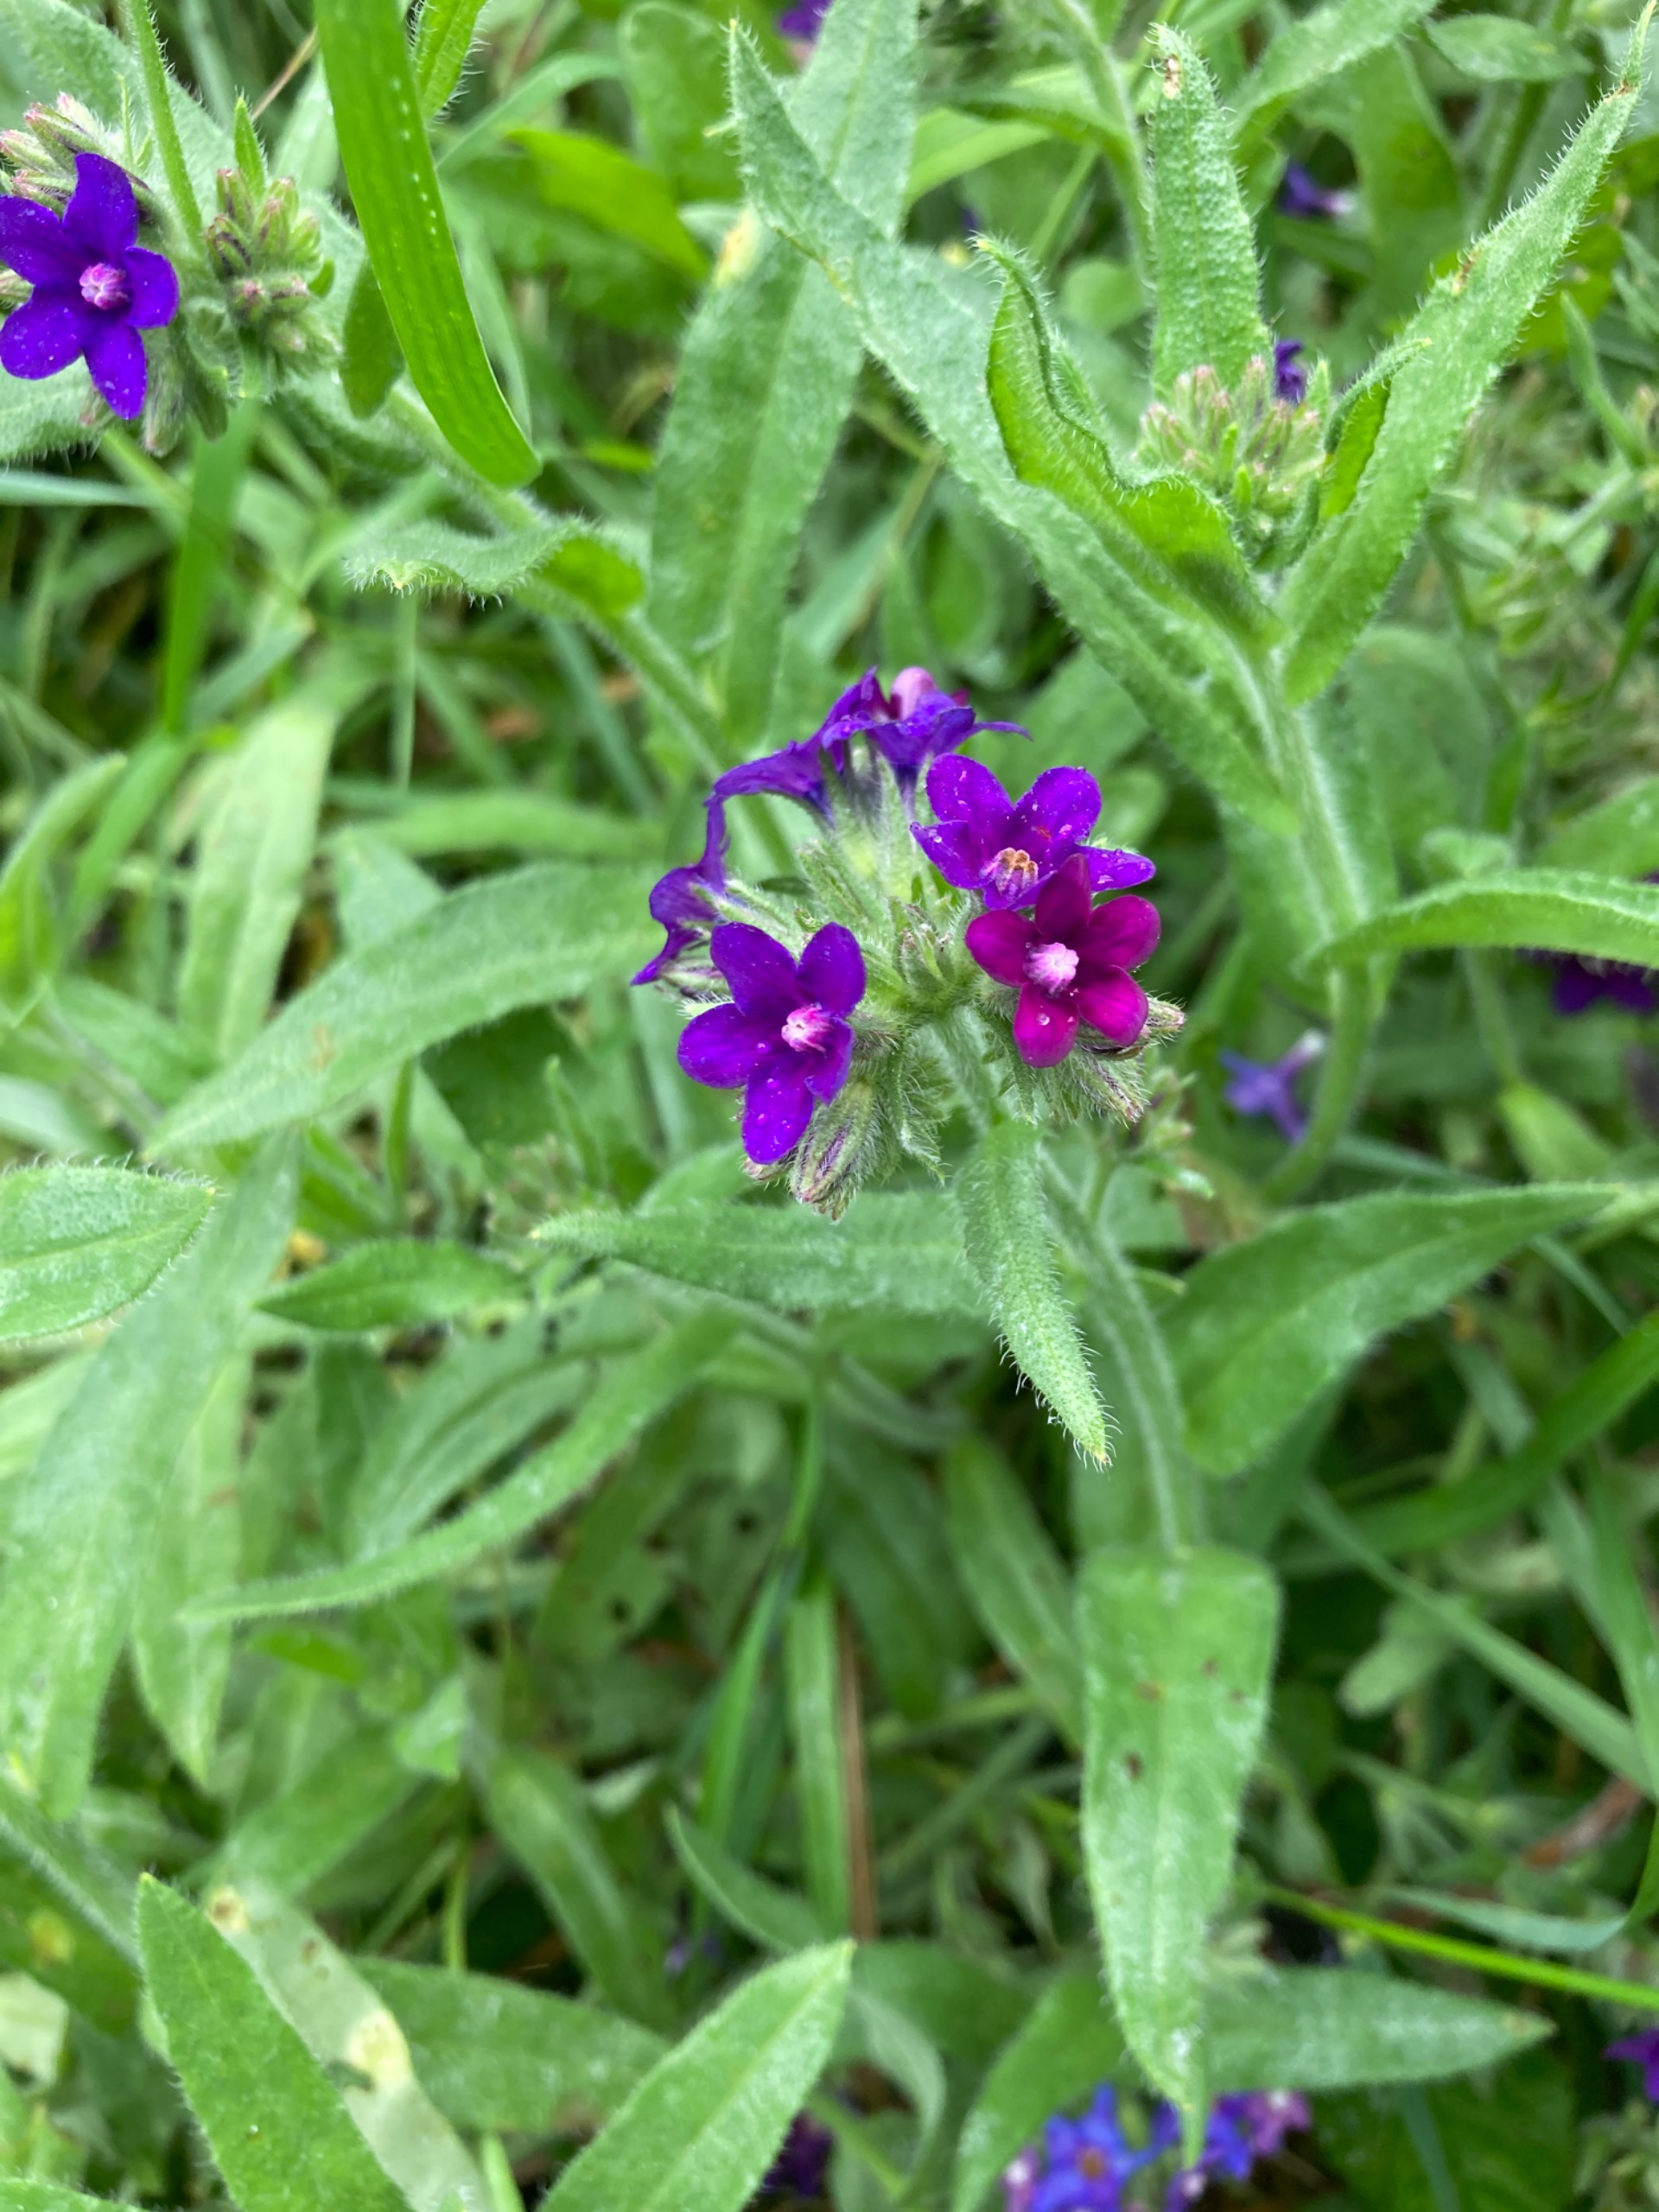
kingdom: Plantae
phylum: Tracheophyta
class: Magnoliopsida
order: Boraginales
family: Boraginaceae
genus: Anchusa
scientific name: Anchusa officinalis
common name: Læge-oksetunge
